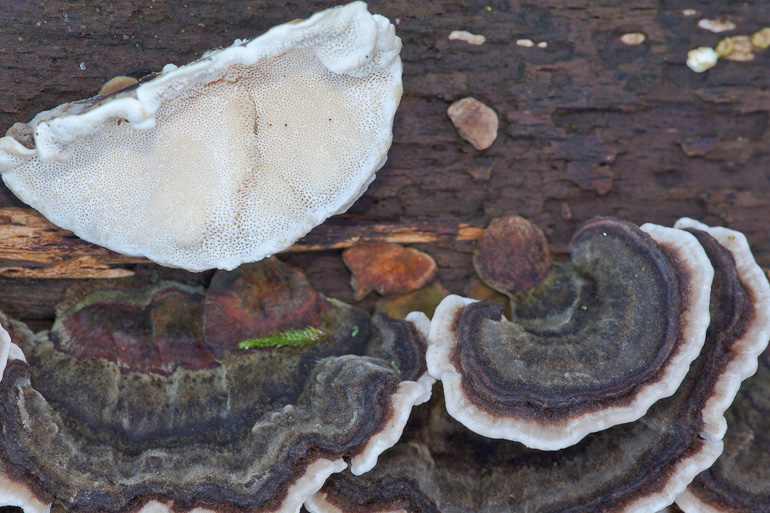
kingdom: Fungi
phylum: Basidiomycota
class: Agaricomycetes
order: Polyporales
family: Polyporaceae
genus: Trametes
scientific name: Trametes versicolor
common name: broget læderporesvamp
